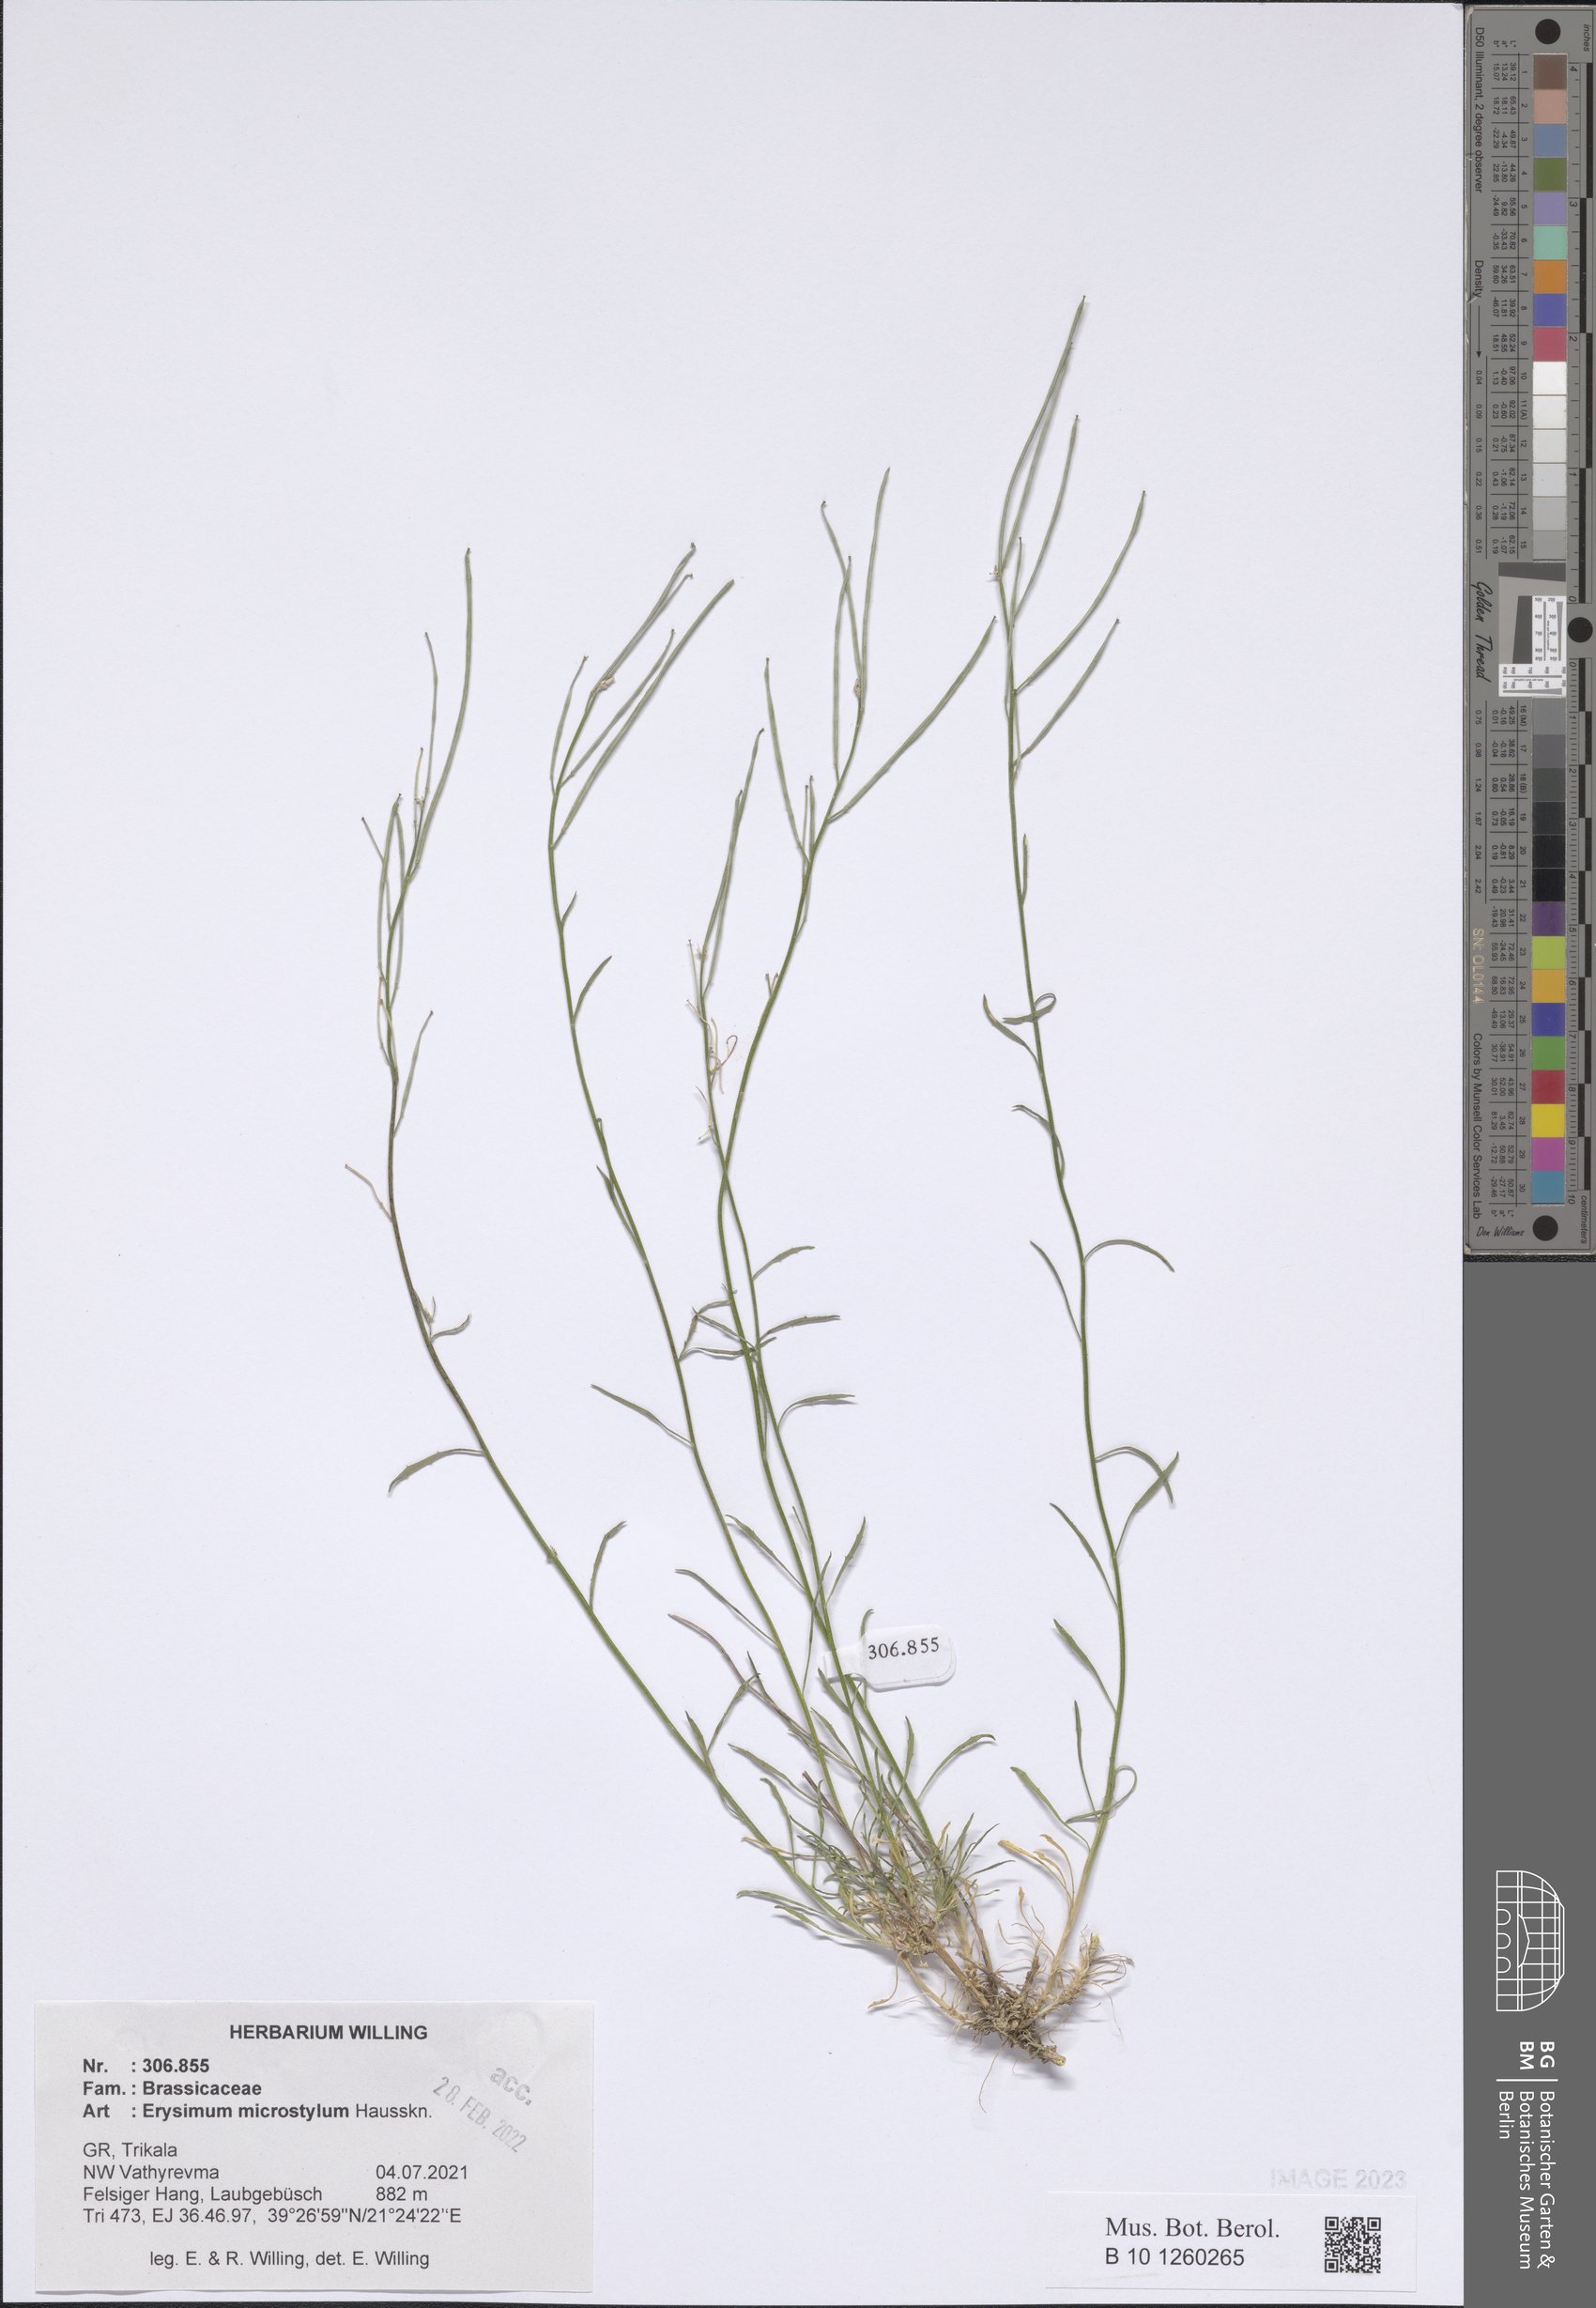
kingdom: Plantae
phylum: Tracheophyta
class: Magnoliopsida
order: Brassicales
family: Brassicaceae
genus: Erysimum
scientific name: Erysimum pusillum
